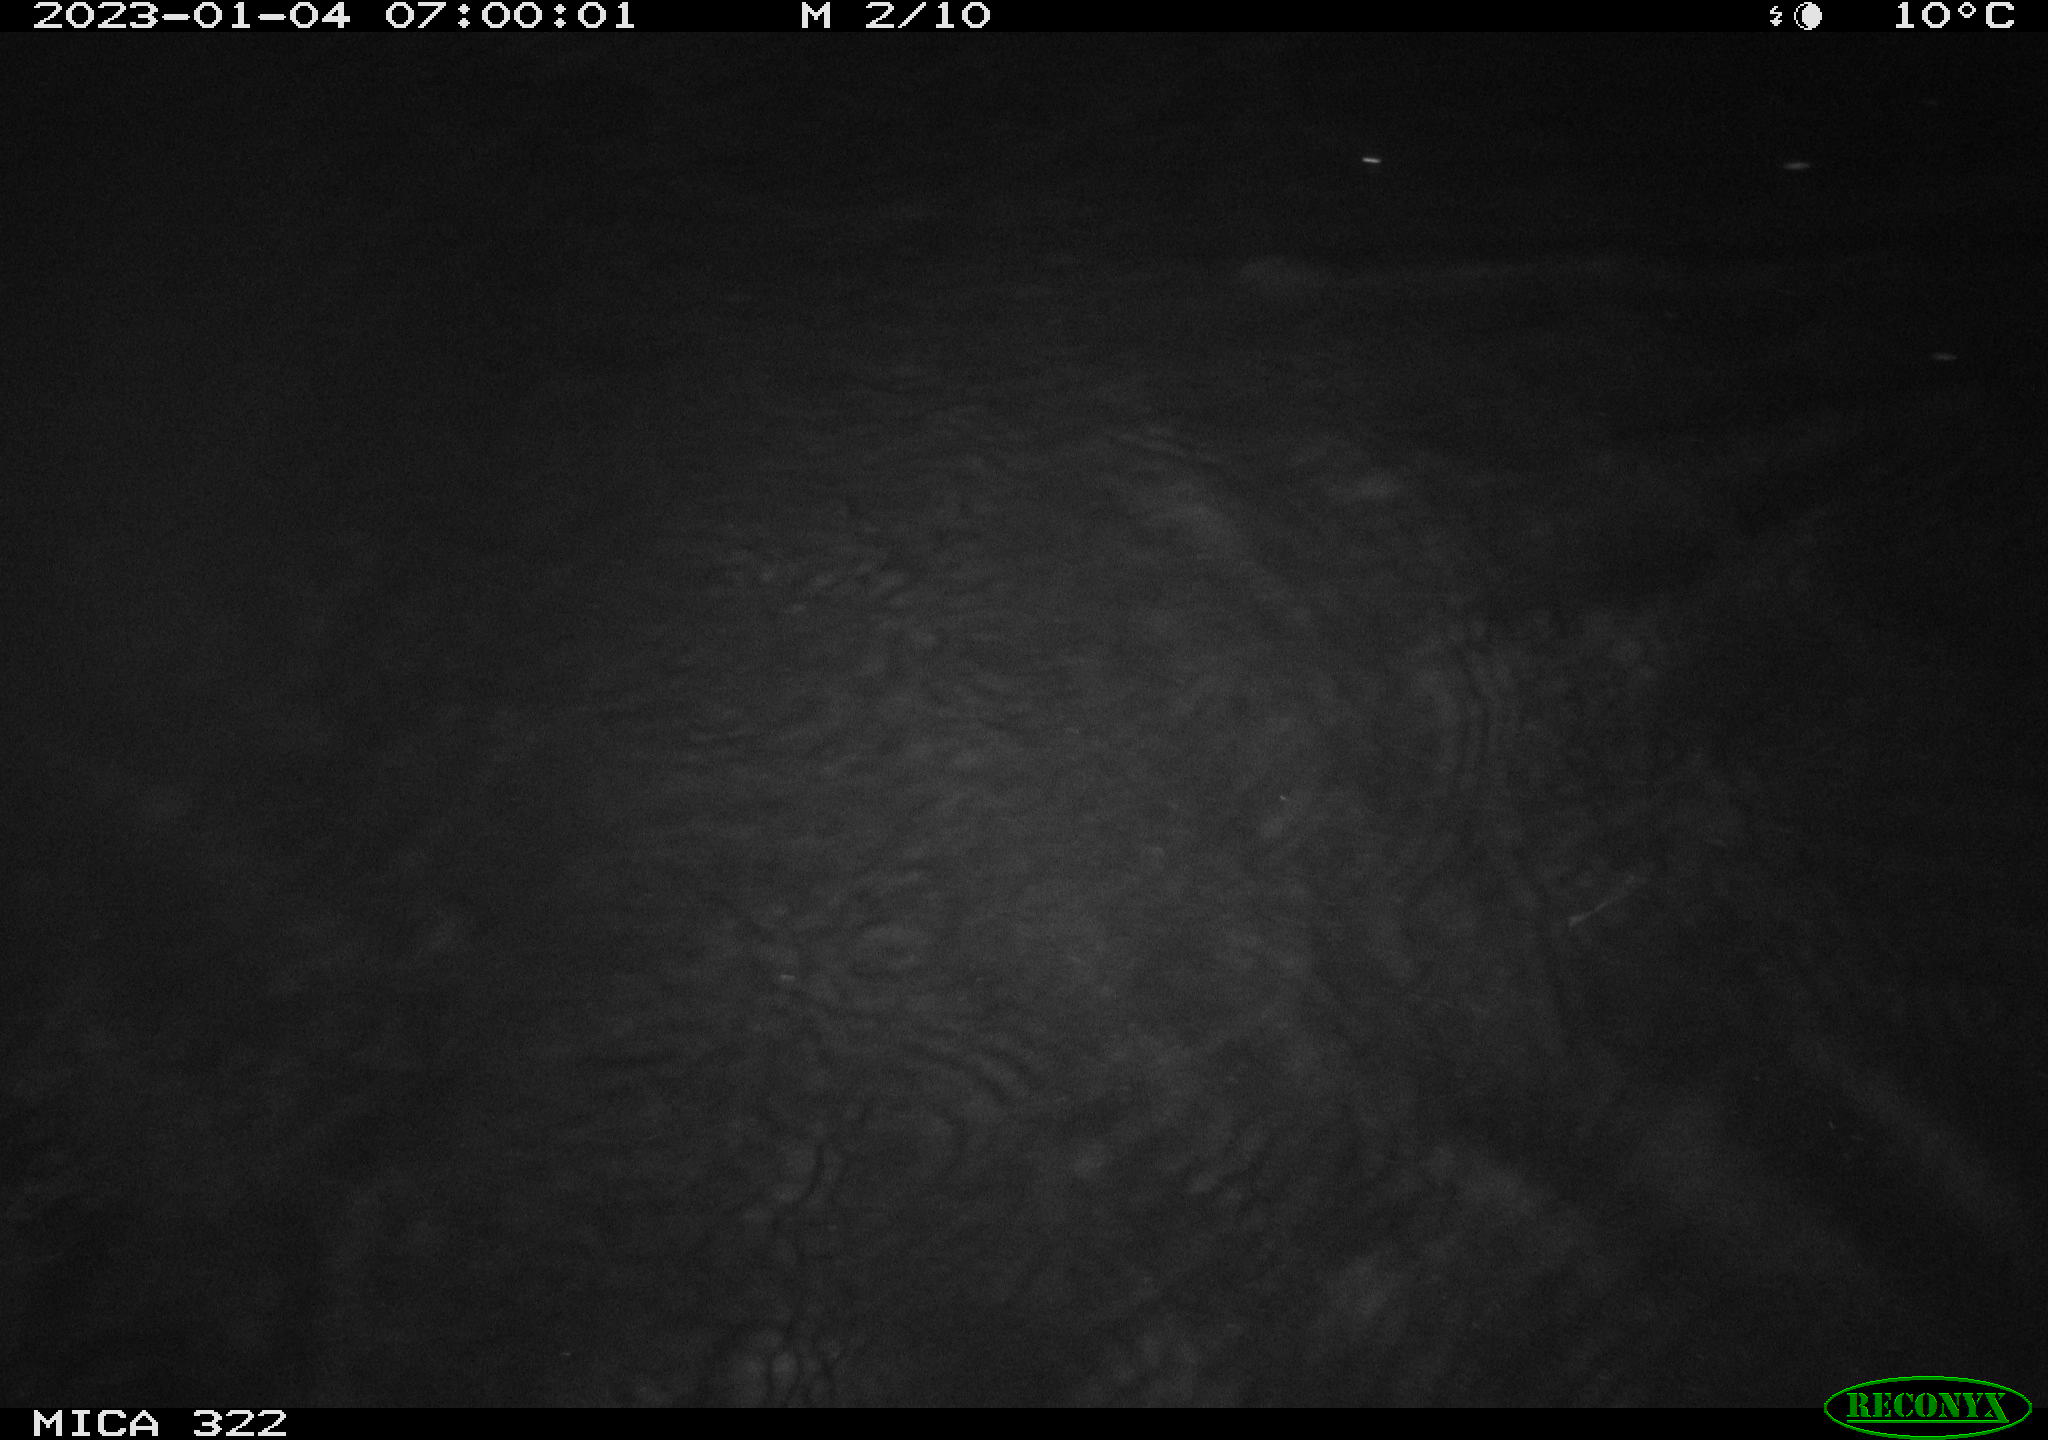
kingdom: Animalia
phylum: Chordata
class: Mammalia
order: Rodentia
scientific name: Rodentia
